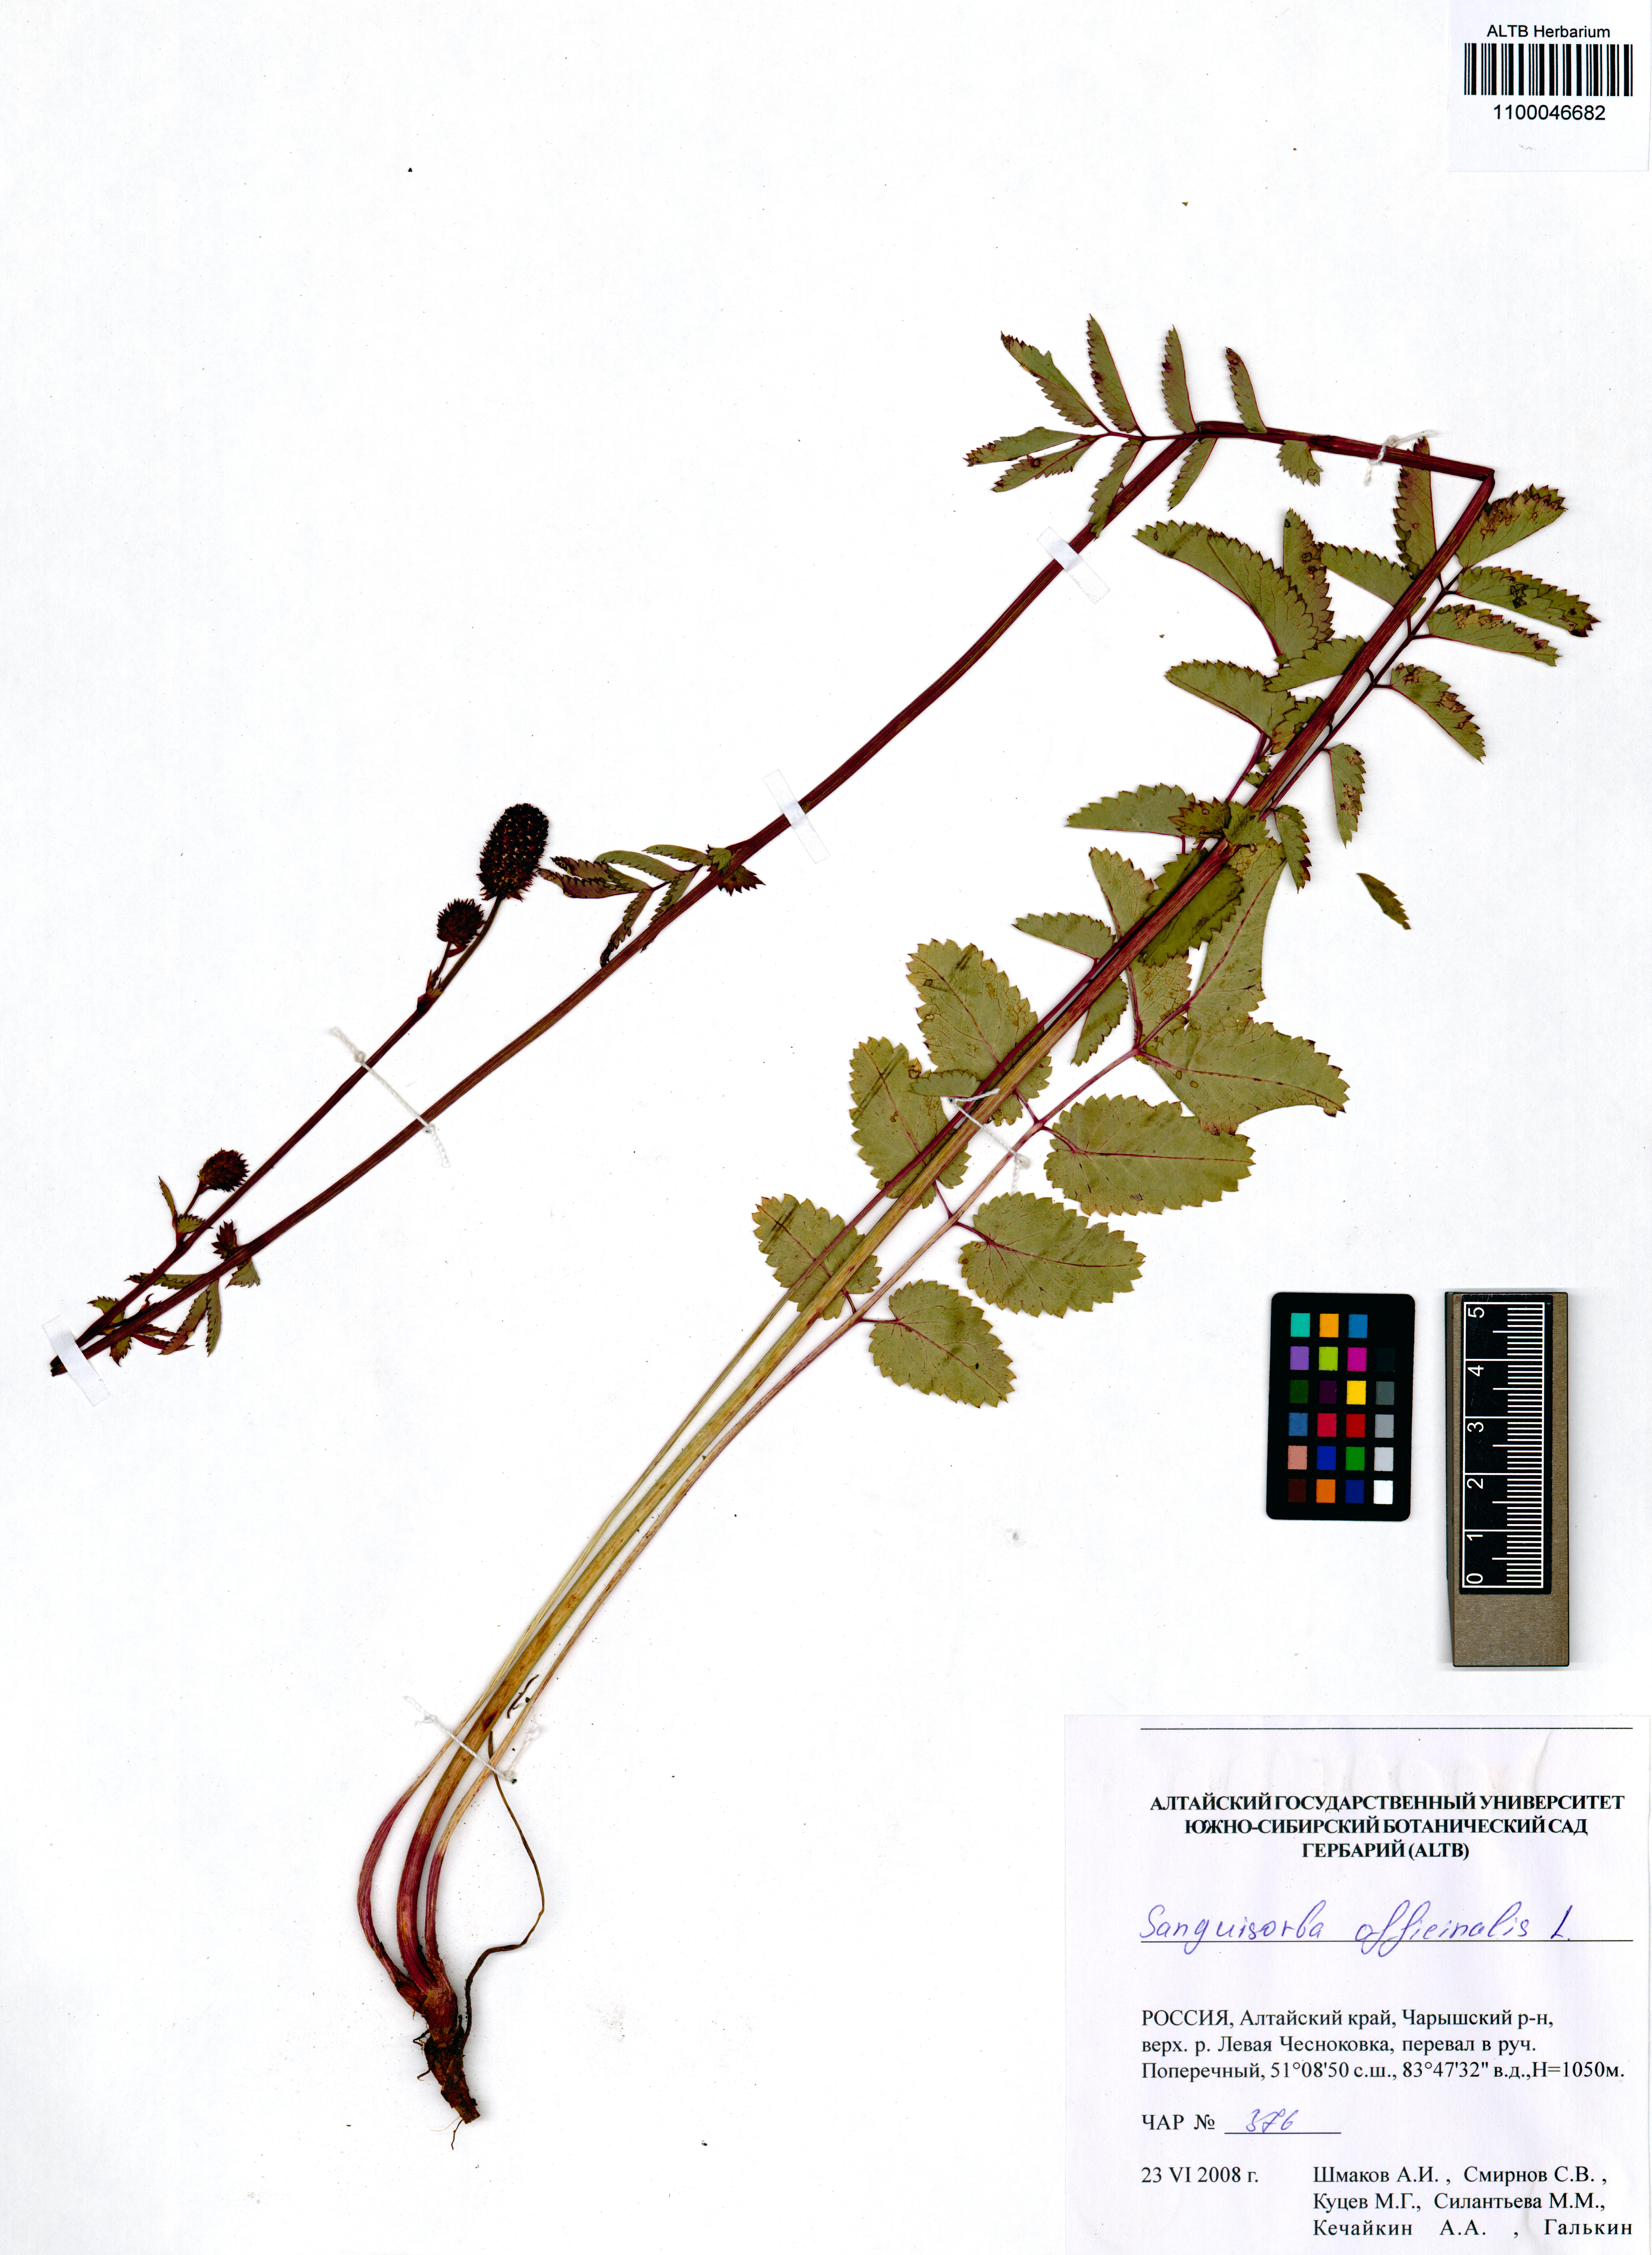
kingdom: Plantae
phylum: Tracheophyta
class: Magnoliopsida
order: Rosales
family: Rosaceae
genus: Sanguisorba
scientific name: Sanguisorba officinalis
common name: Great burnet
